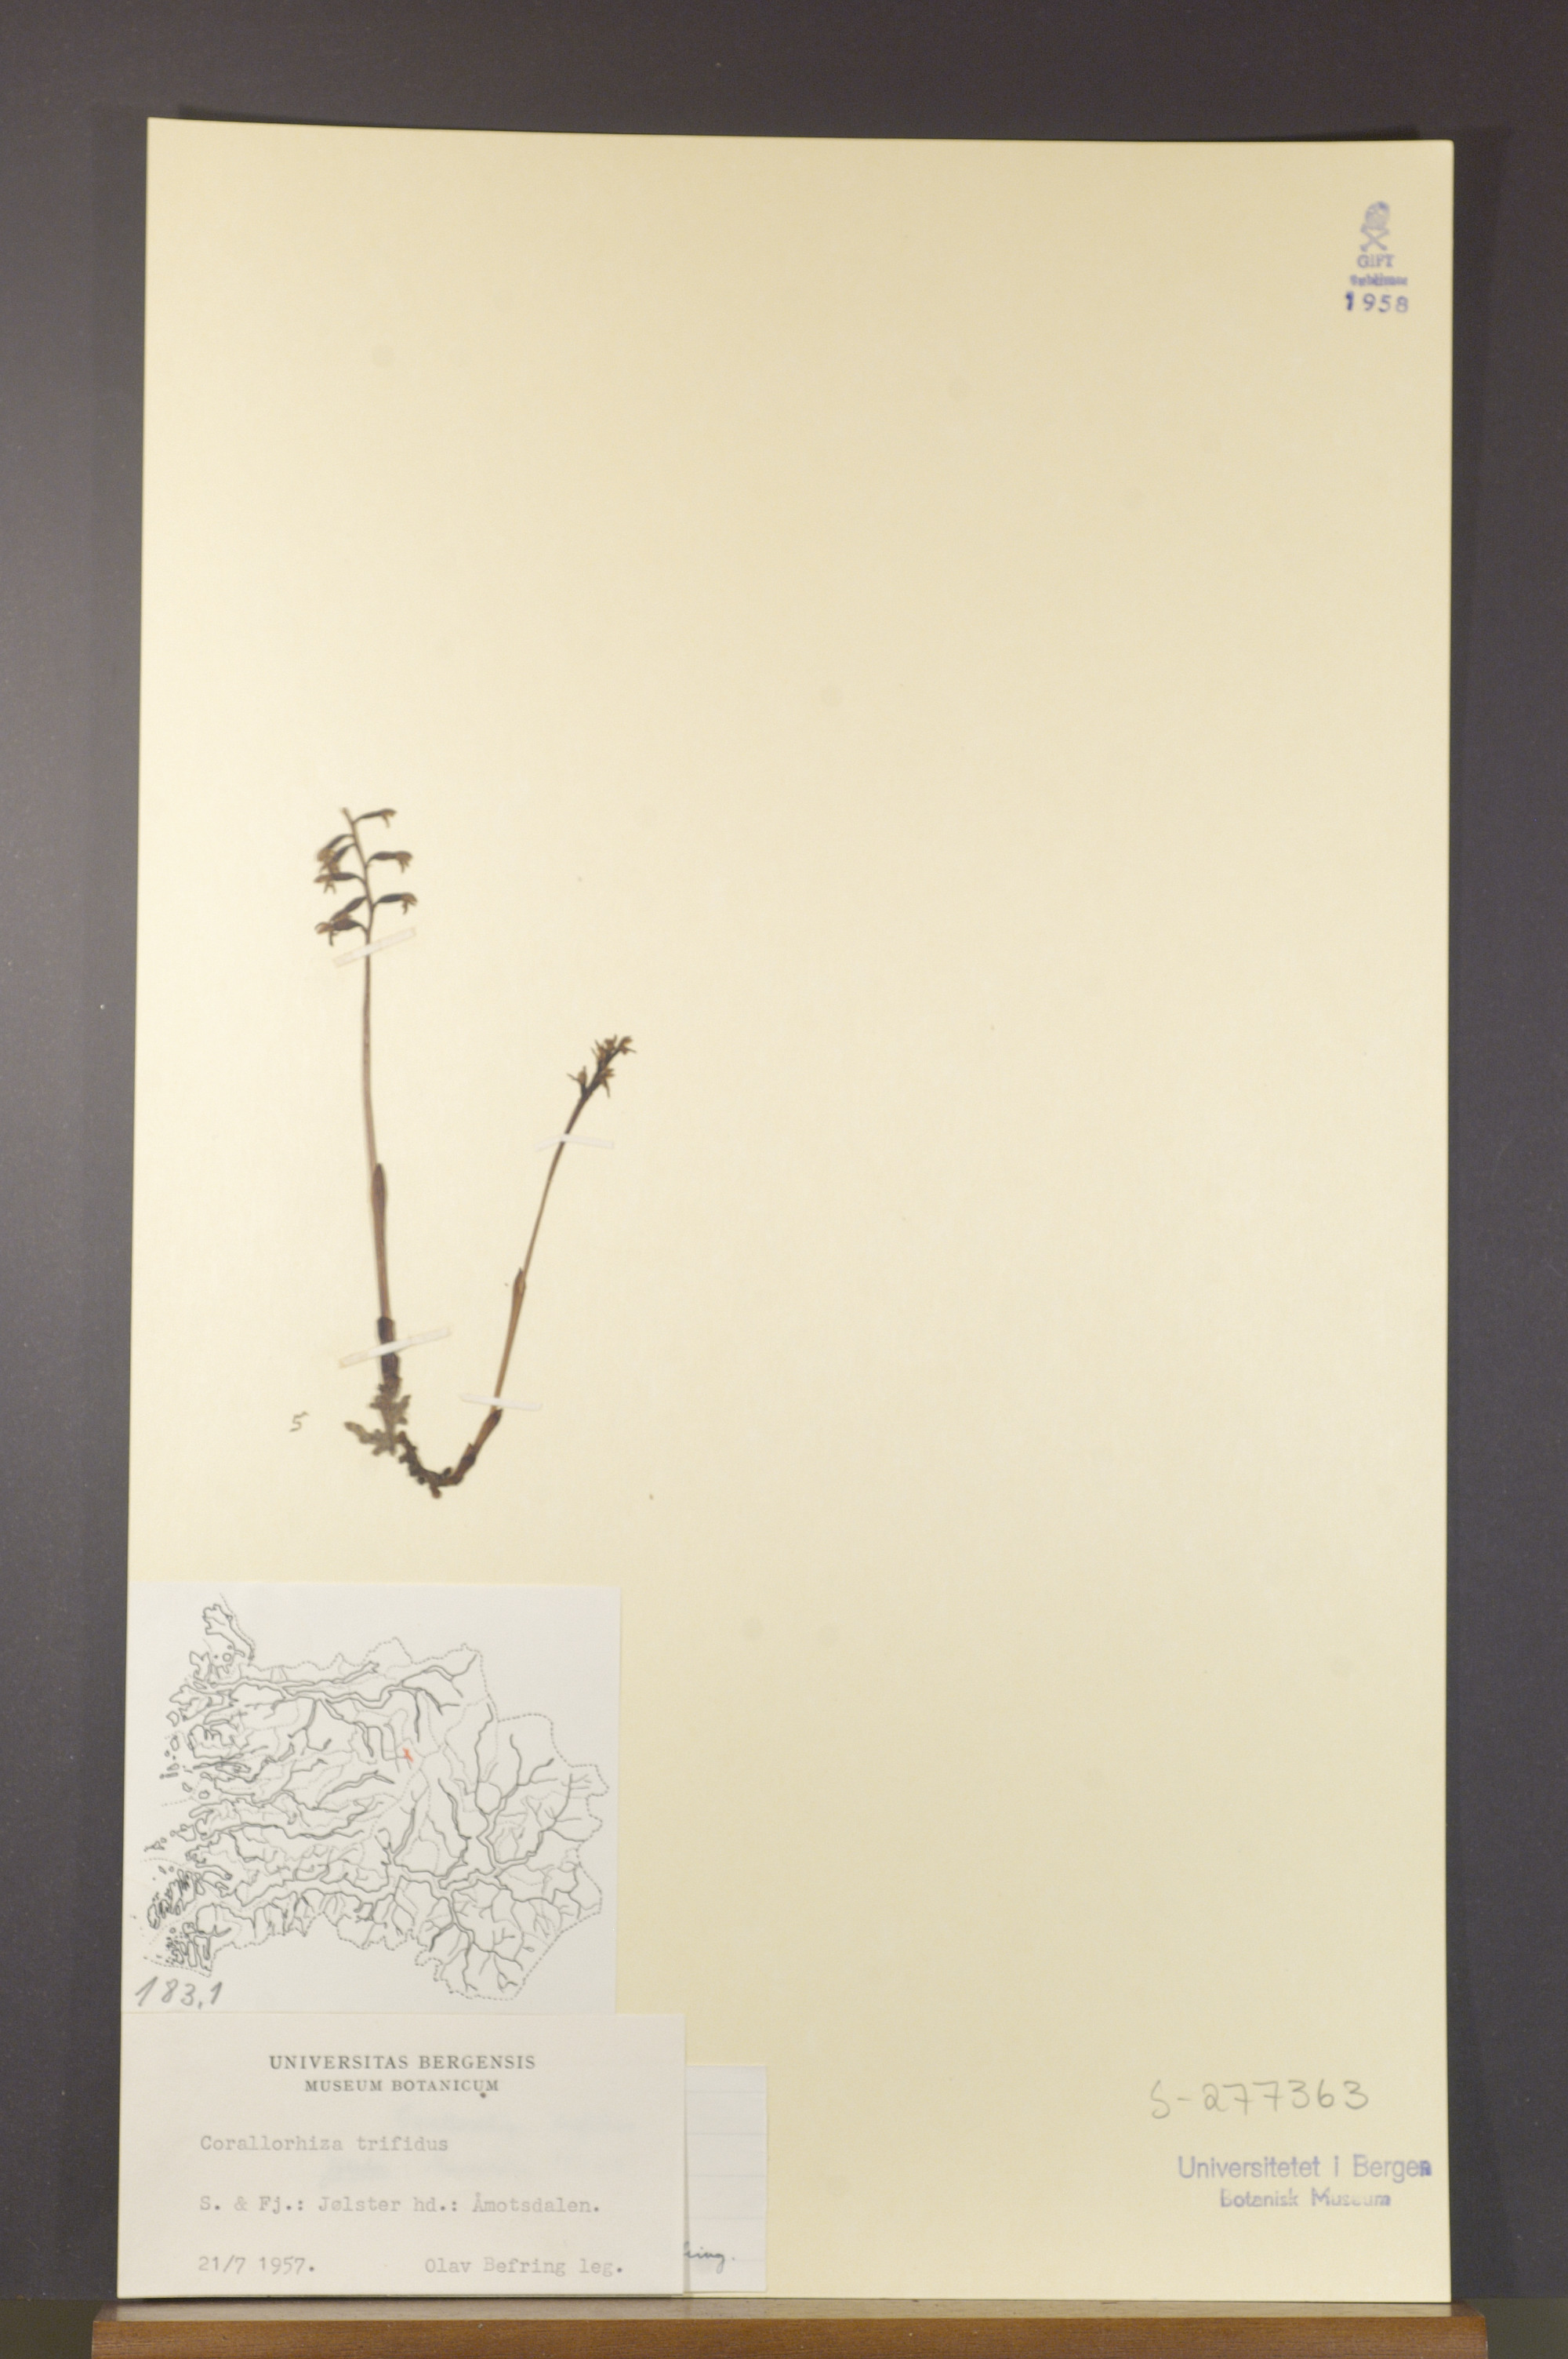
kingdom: Plantae
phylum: Tracheophyta
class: Liliopsida
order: Asparagales
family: Orchidaceae
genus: Corallorhiza
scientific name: Corallorhiza trifida
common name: Yellow coralroot
